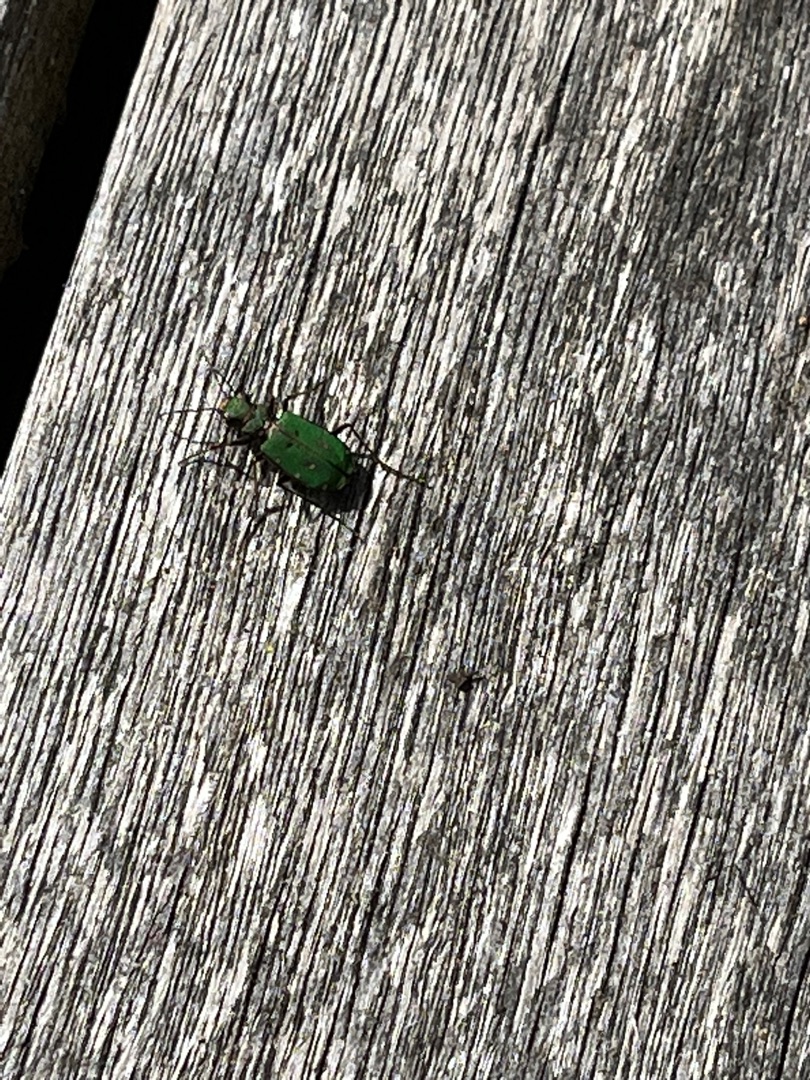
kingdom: Animalia
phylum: Arthropoda
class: Insecta
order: Coleoptera
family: Carabidae
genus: Cicindela
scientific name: Cicindela campestris
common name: Grøn sandspringer
